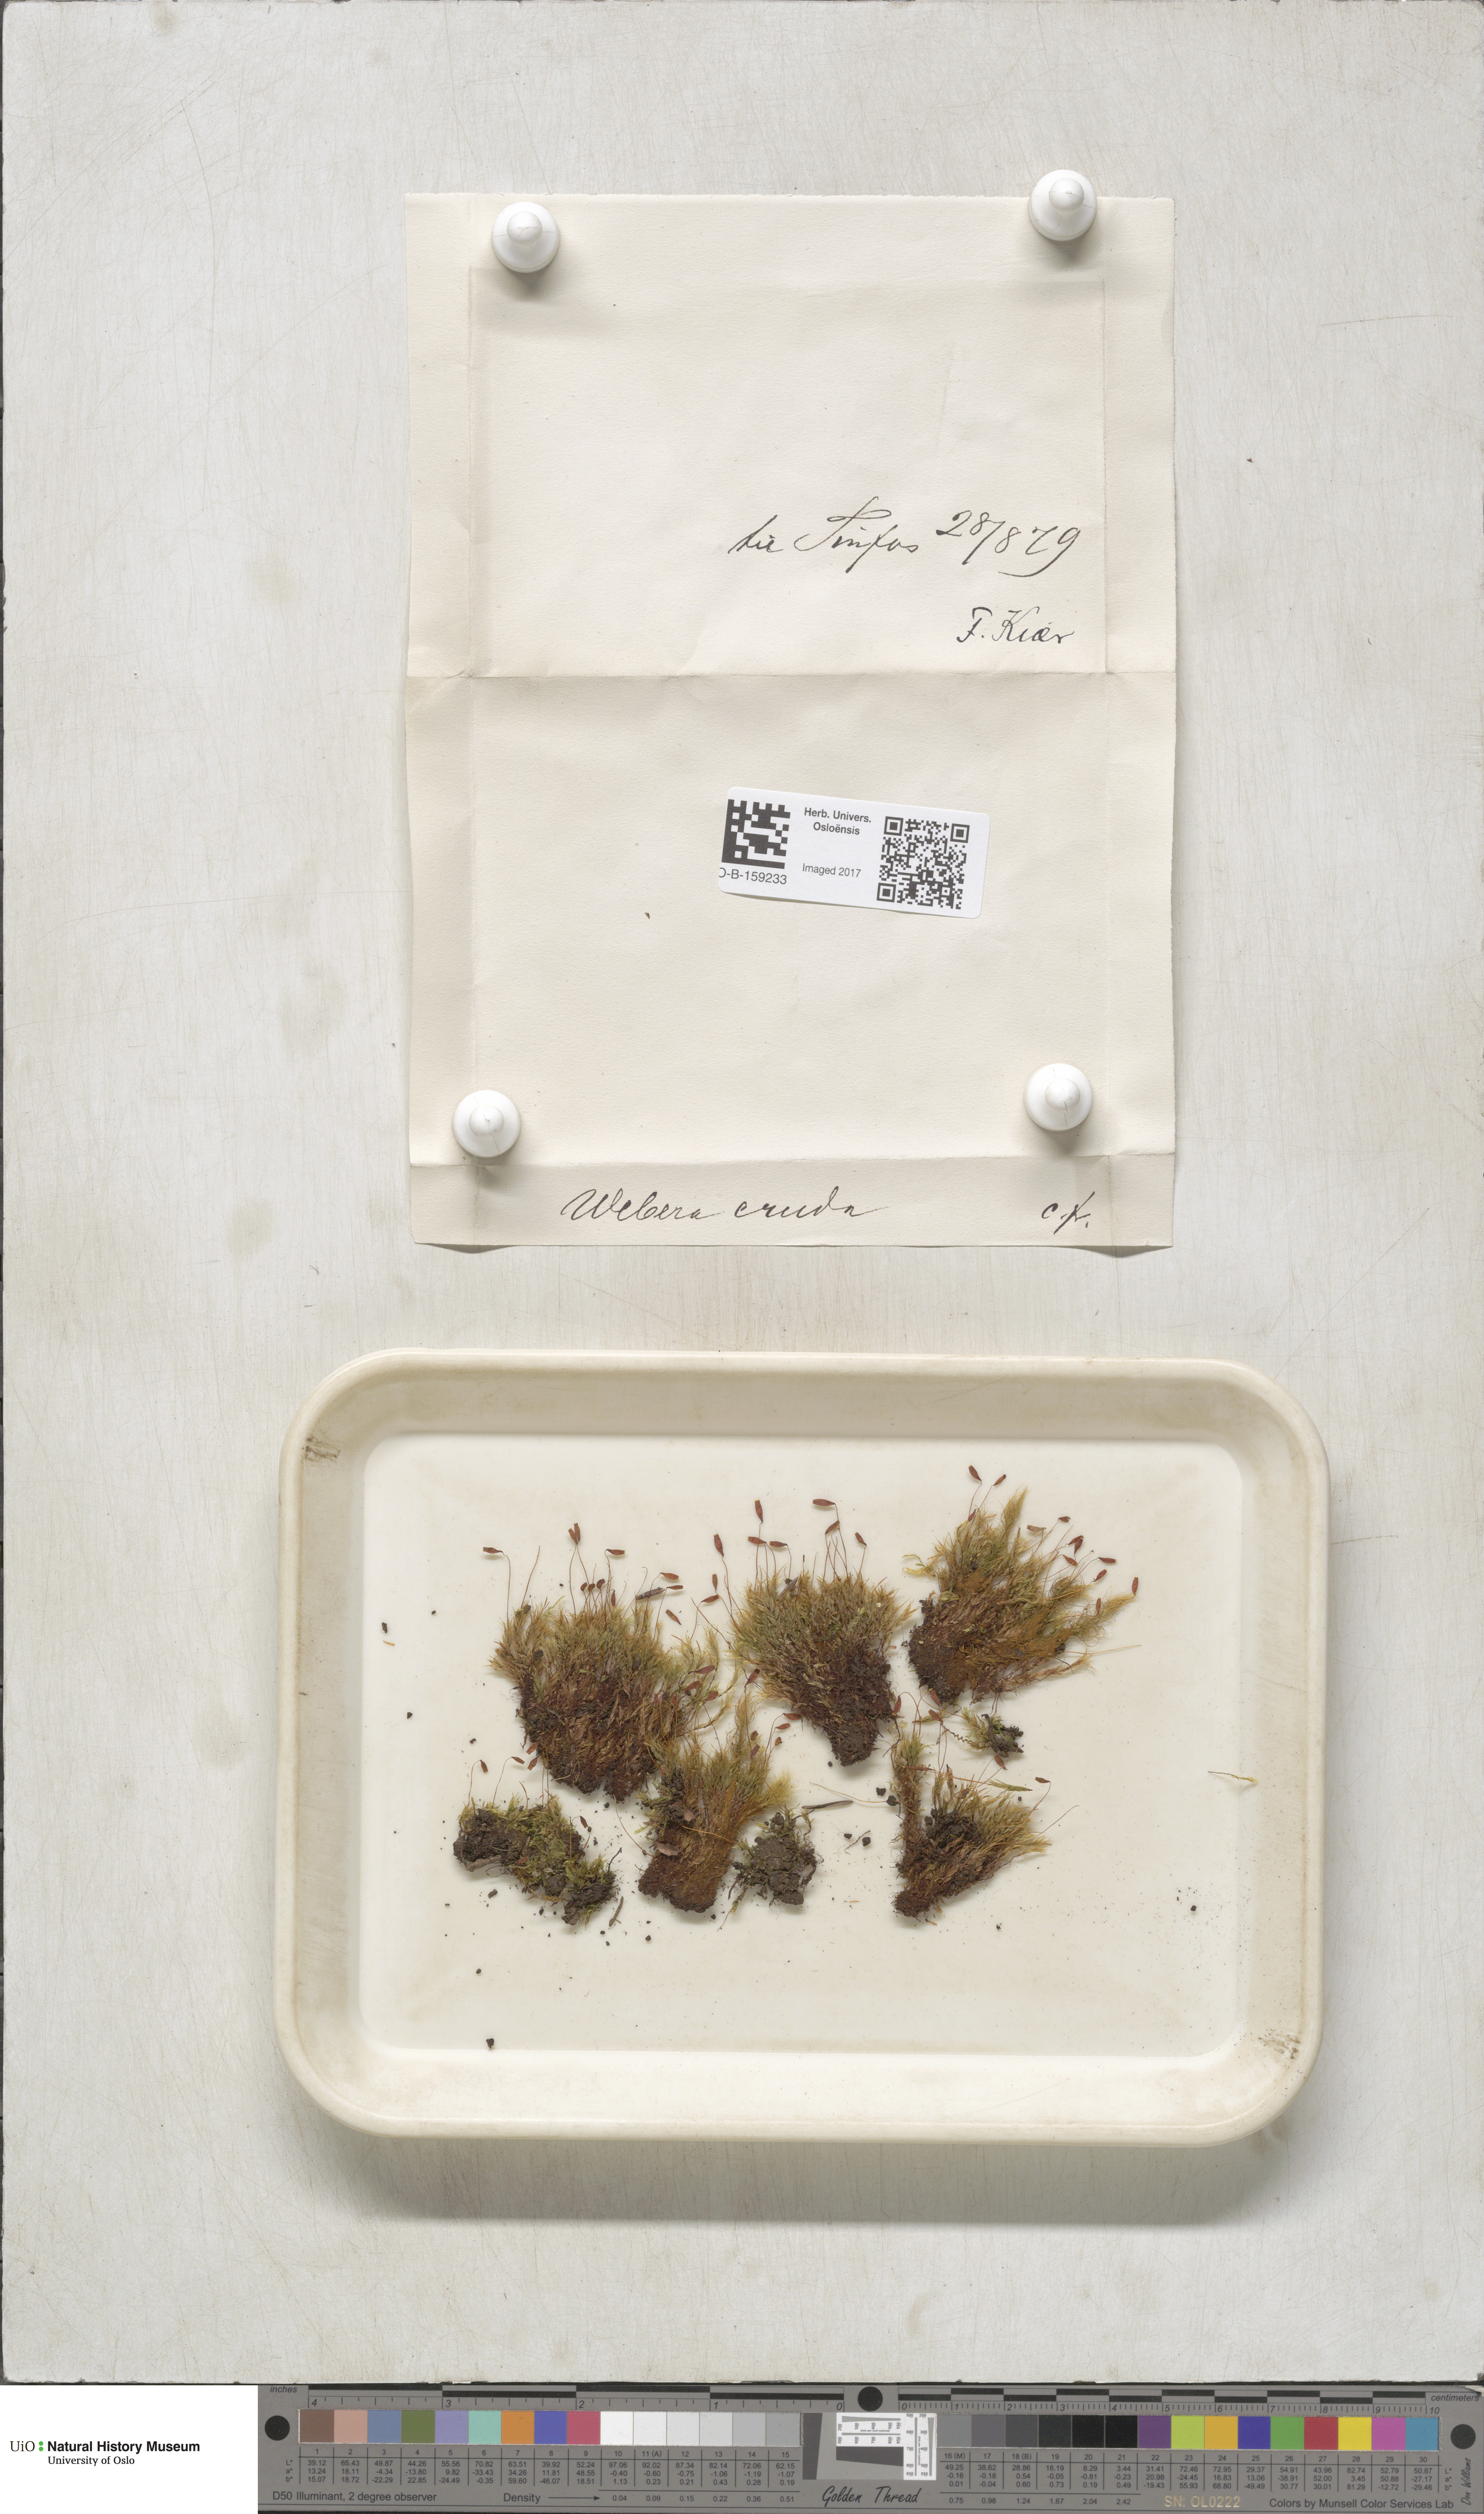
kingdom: Plantae
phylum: Bryophyta
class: Bryopsida
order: Bryales
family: Mniaceae
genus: Pohlia
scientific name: Pohlia cruda
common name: Opal nodding moss
